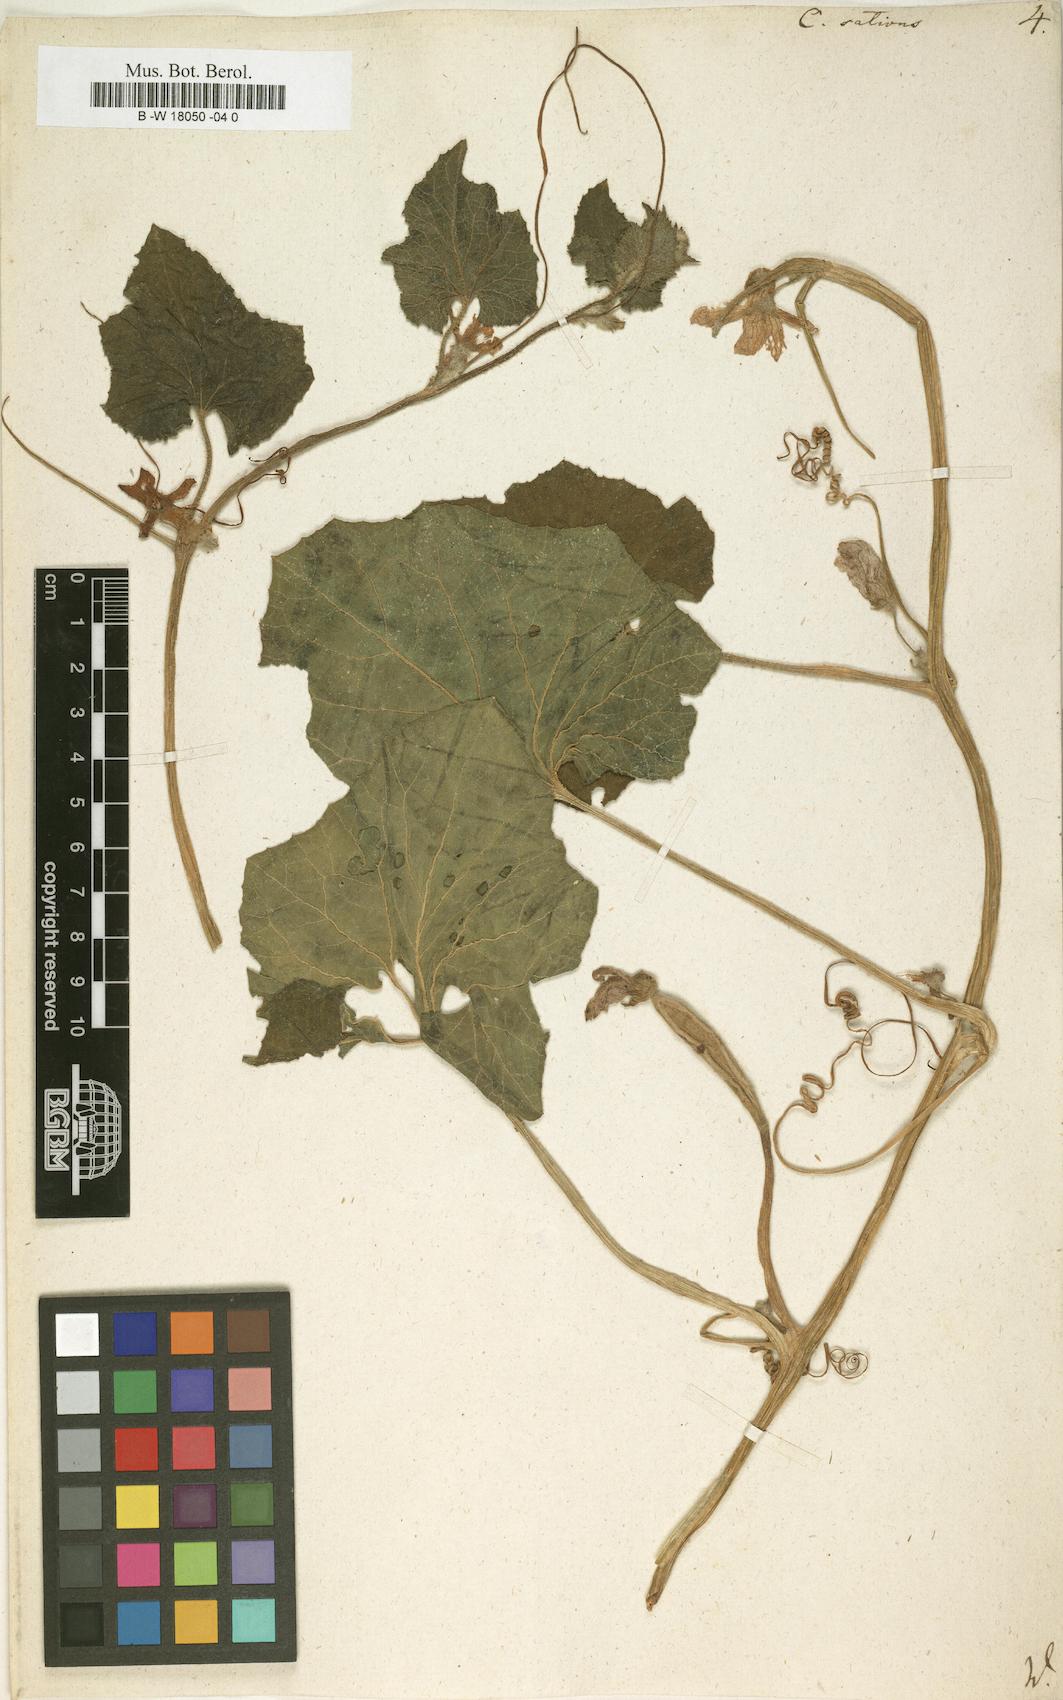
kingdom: Plantae
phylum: Tracheophyta
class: Magnoliopsida
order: Cucurbitales
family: Cucurbitaceae
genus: Cucumis
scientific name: Cucumis sativus
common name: Cucumber
